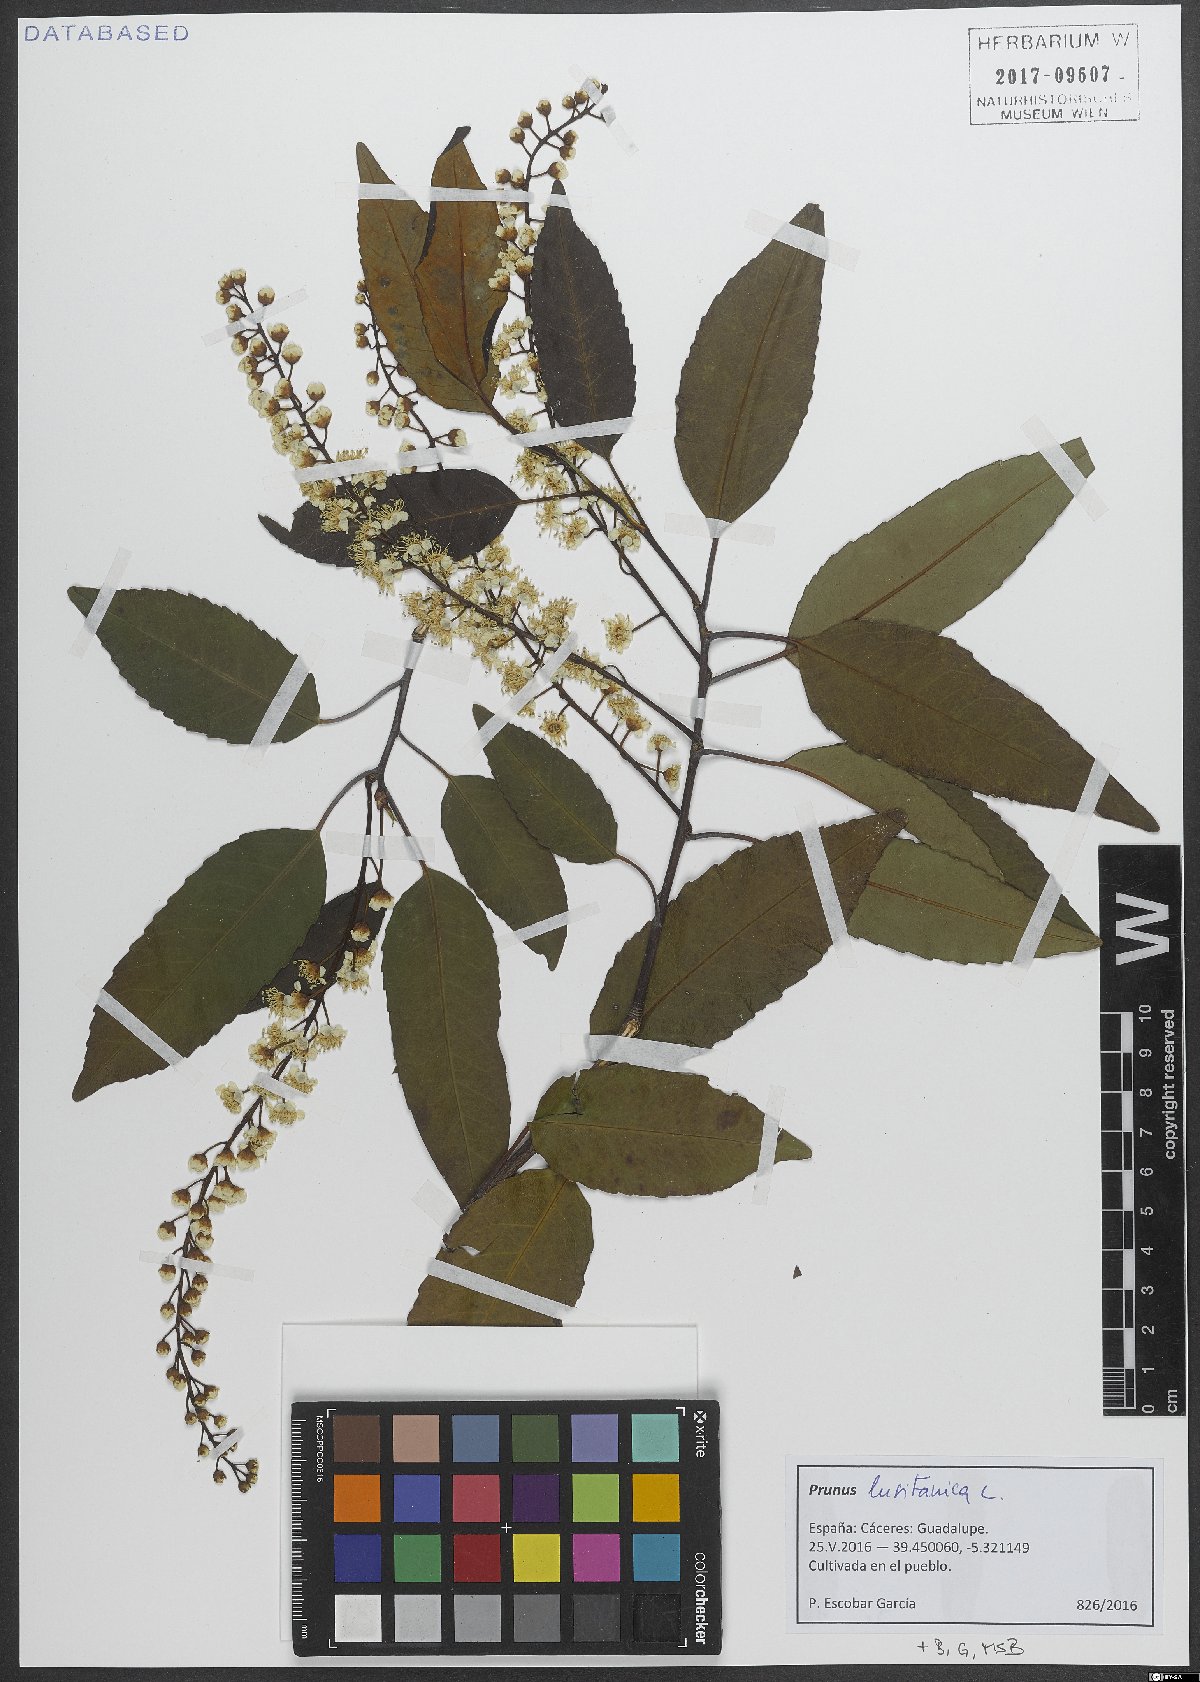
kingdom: Plantae
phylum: Tracheophyta
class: Magnoliopsida
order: Rosales
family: Rosaceae
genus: Prunus
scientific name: Prunus lusitanica
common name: Portugal laurel
